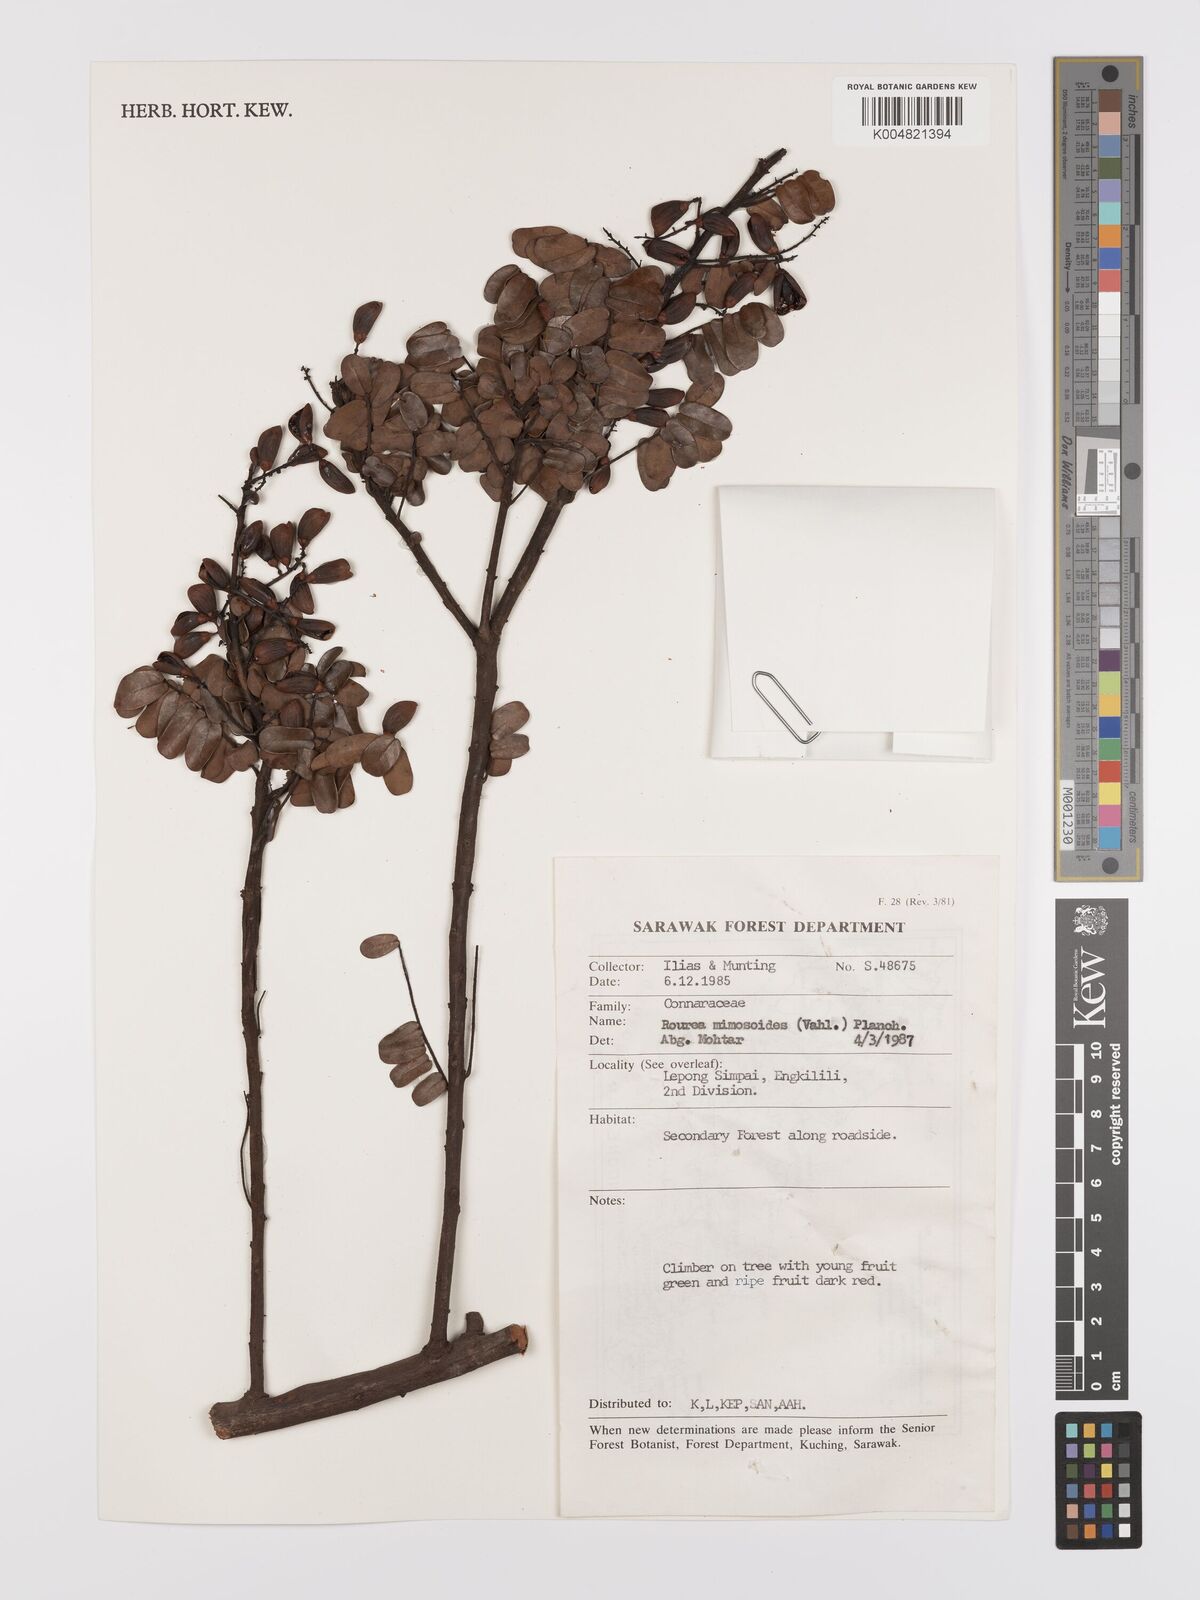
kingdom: Plantae
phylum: Tracheophyta
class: Magnoliopsida
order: Oxalidales
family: Connaraceae
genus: Rourea
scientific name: Rourea mimosoides
